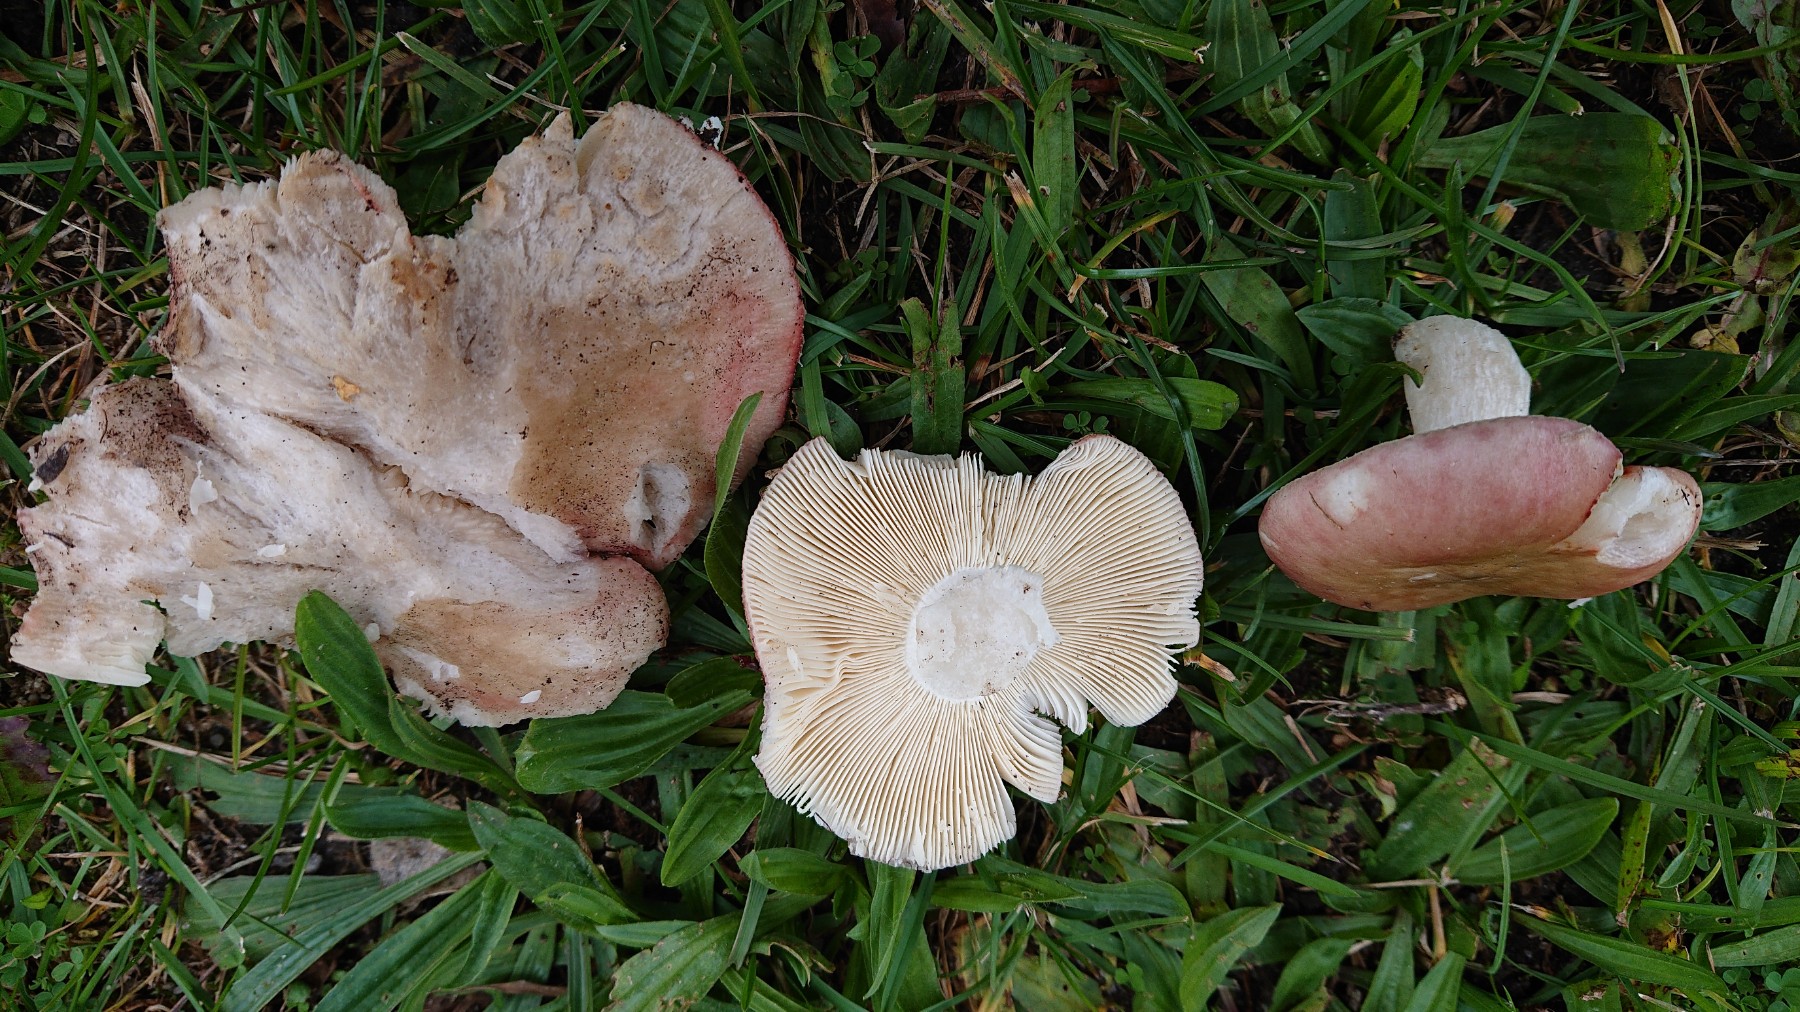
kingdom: Fungi
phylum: Basidiomycota
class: Agaricomycetes
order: Russulales
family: Russulaceae
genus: Russula
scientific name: Russula depallens
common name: falmende skørhat
